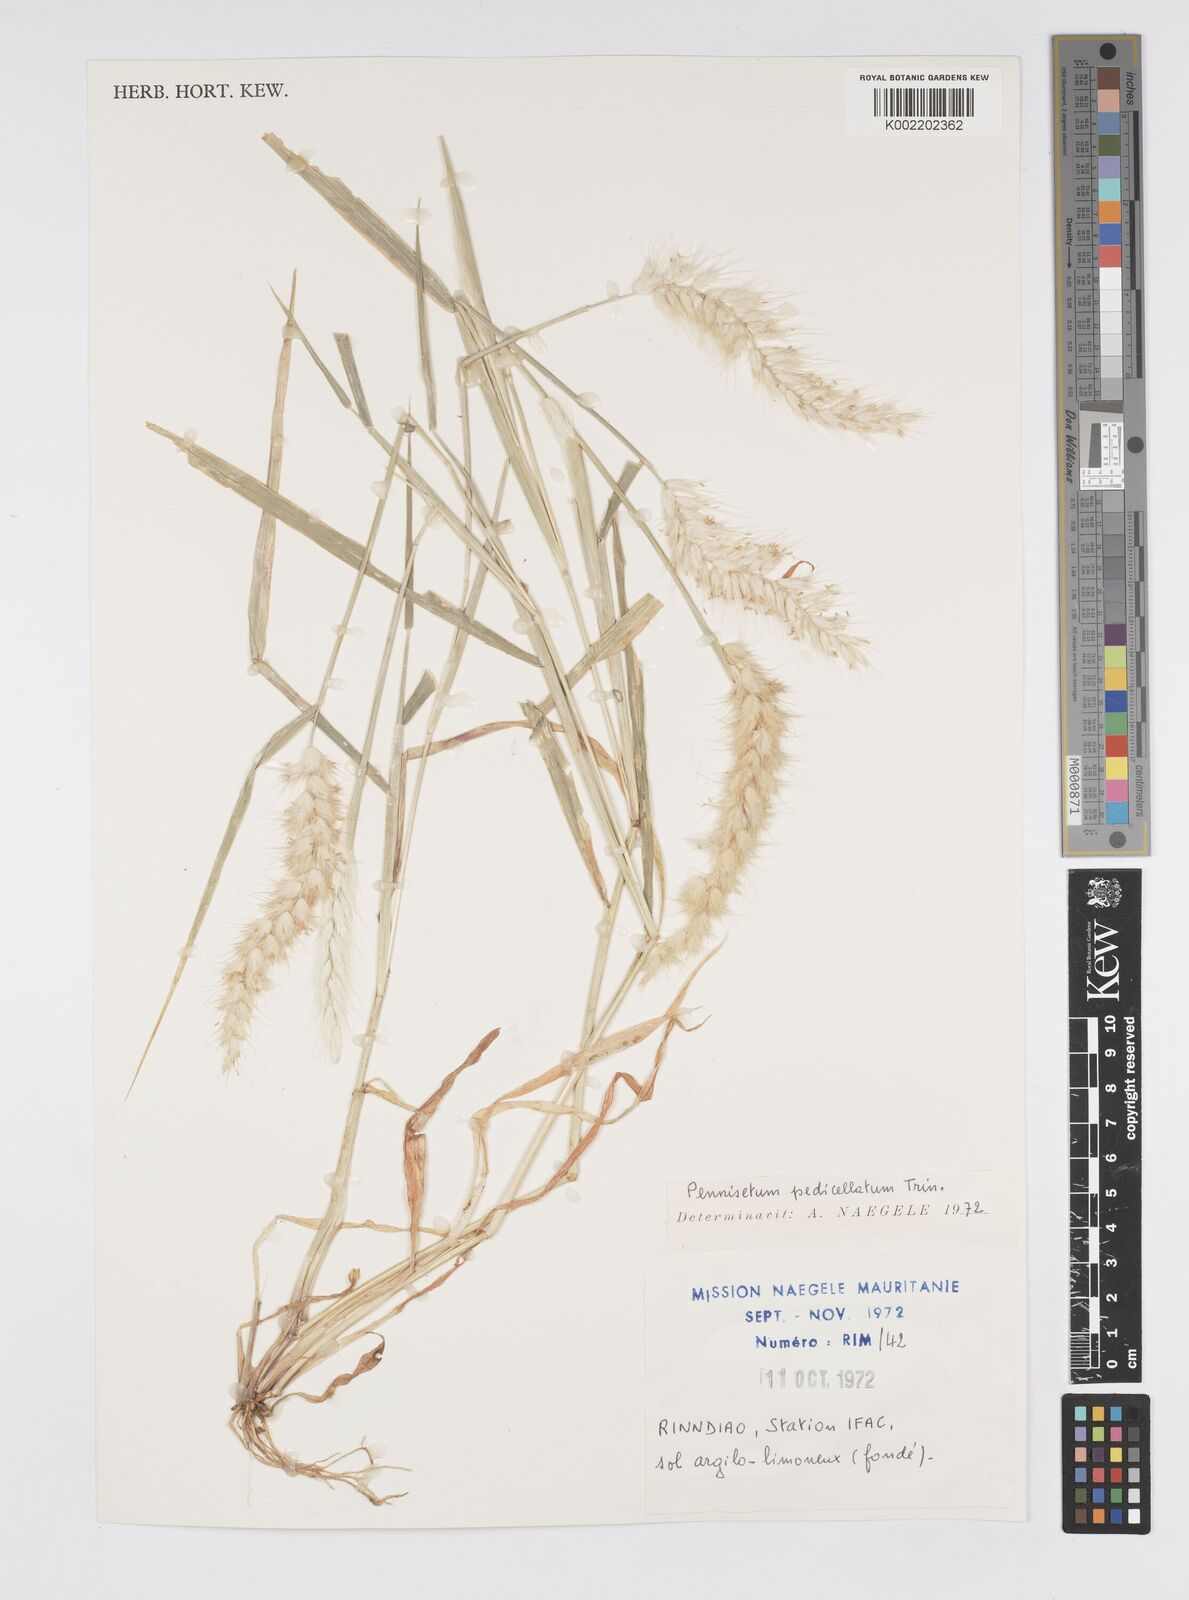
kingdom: Plantae
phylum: Tracheophyta
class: Liliopsida
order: Poales
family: Poaceae
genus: Cenchrus
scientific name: Cenchrus pedicellatus
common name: Hairy fountain grass
